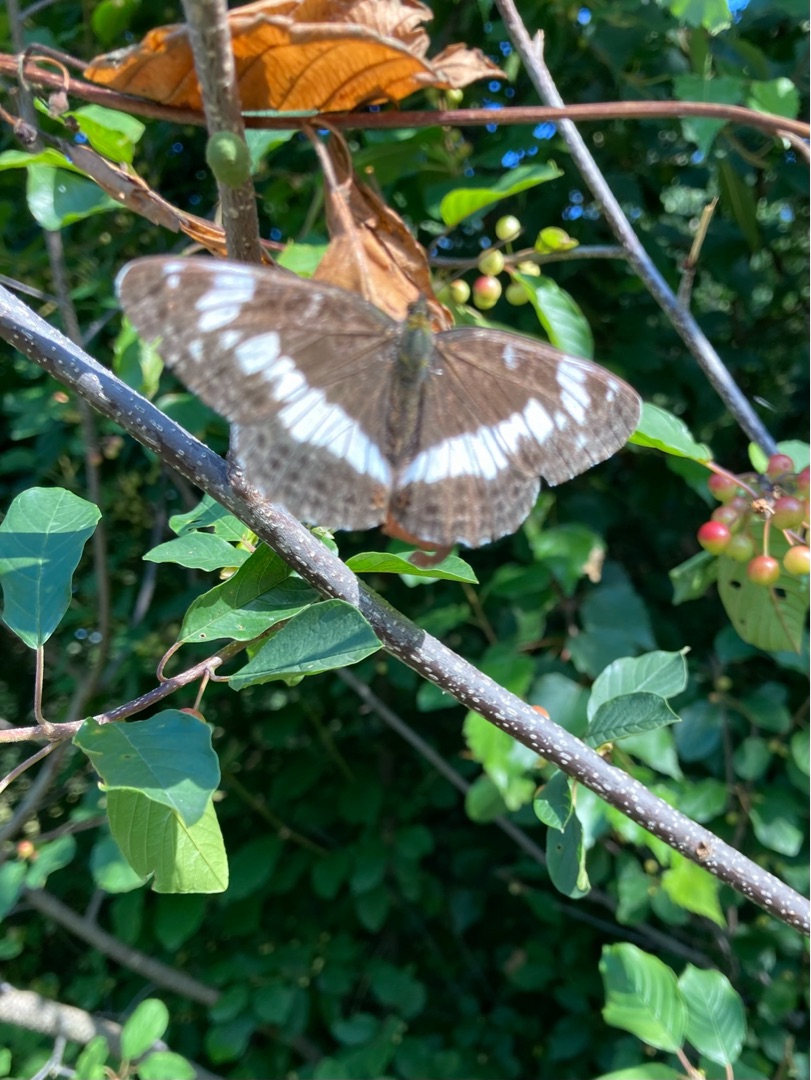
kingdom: Animalia
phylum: Arthropoda
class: Insecta
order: Lepidoptera
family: Nymphalidae
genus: Ladoga
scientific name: Ladoga camilla
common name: Hvid admiral
